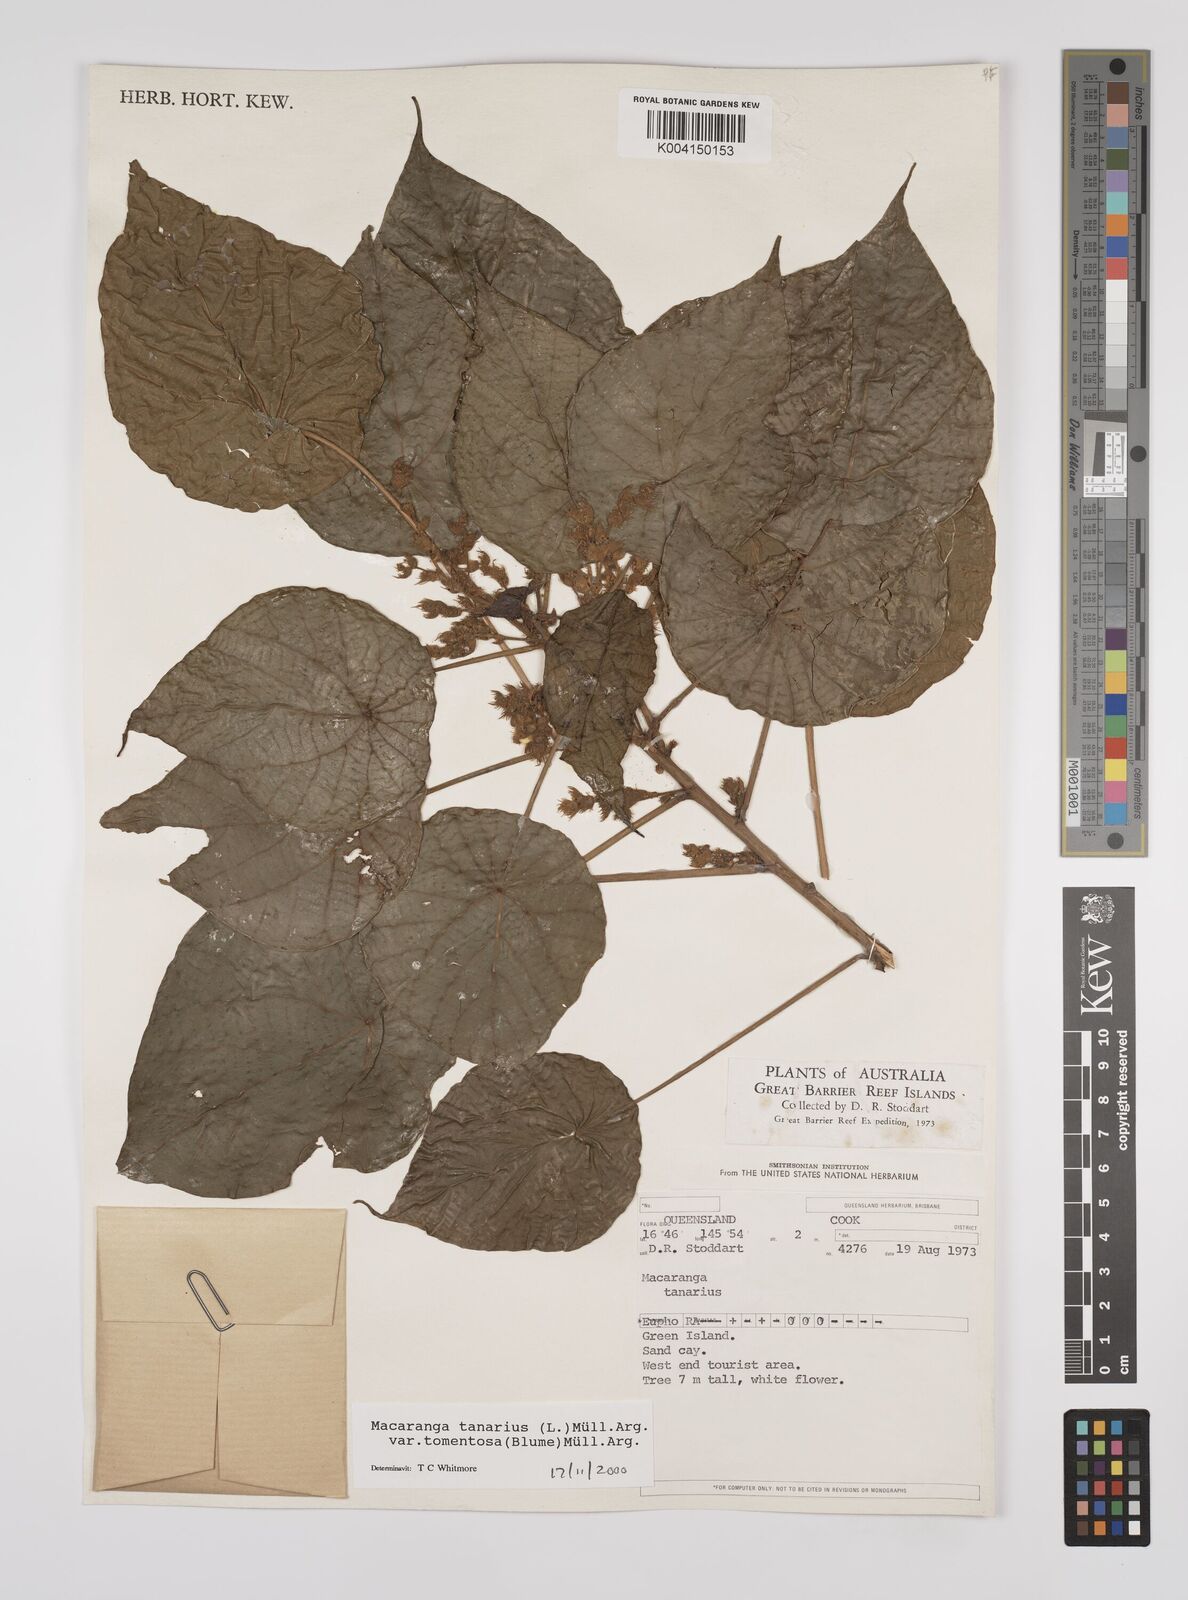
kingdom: Plantae
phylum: Tracheophyta
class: Magnoliopsida
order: Malpighiales
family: Euphorbiaceae
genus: Macaranga
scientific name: Macaranga tanarius
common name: Parasol leaf tree
